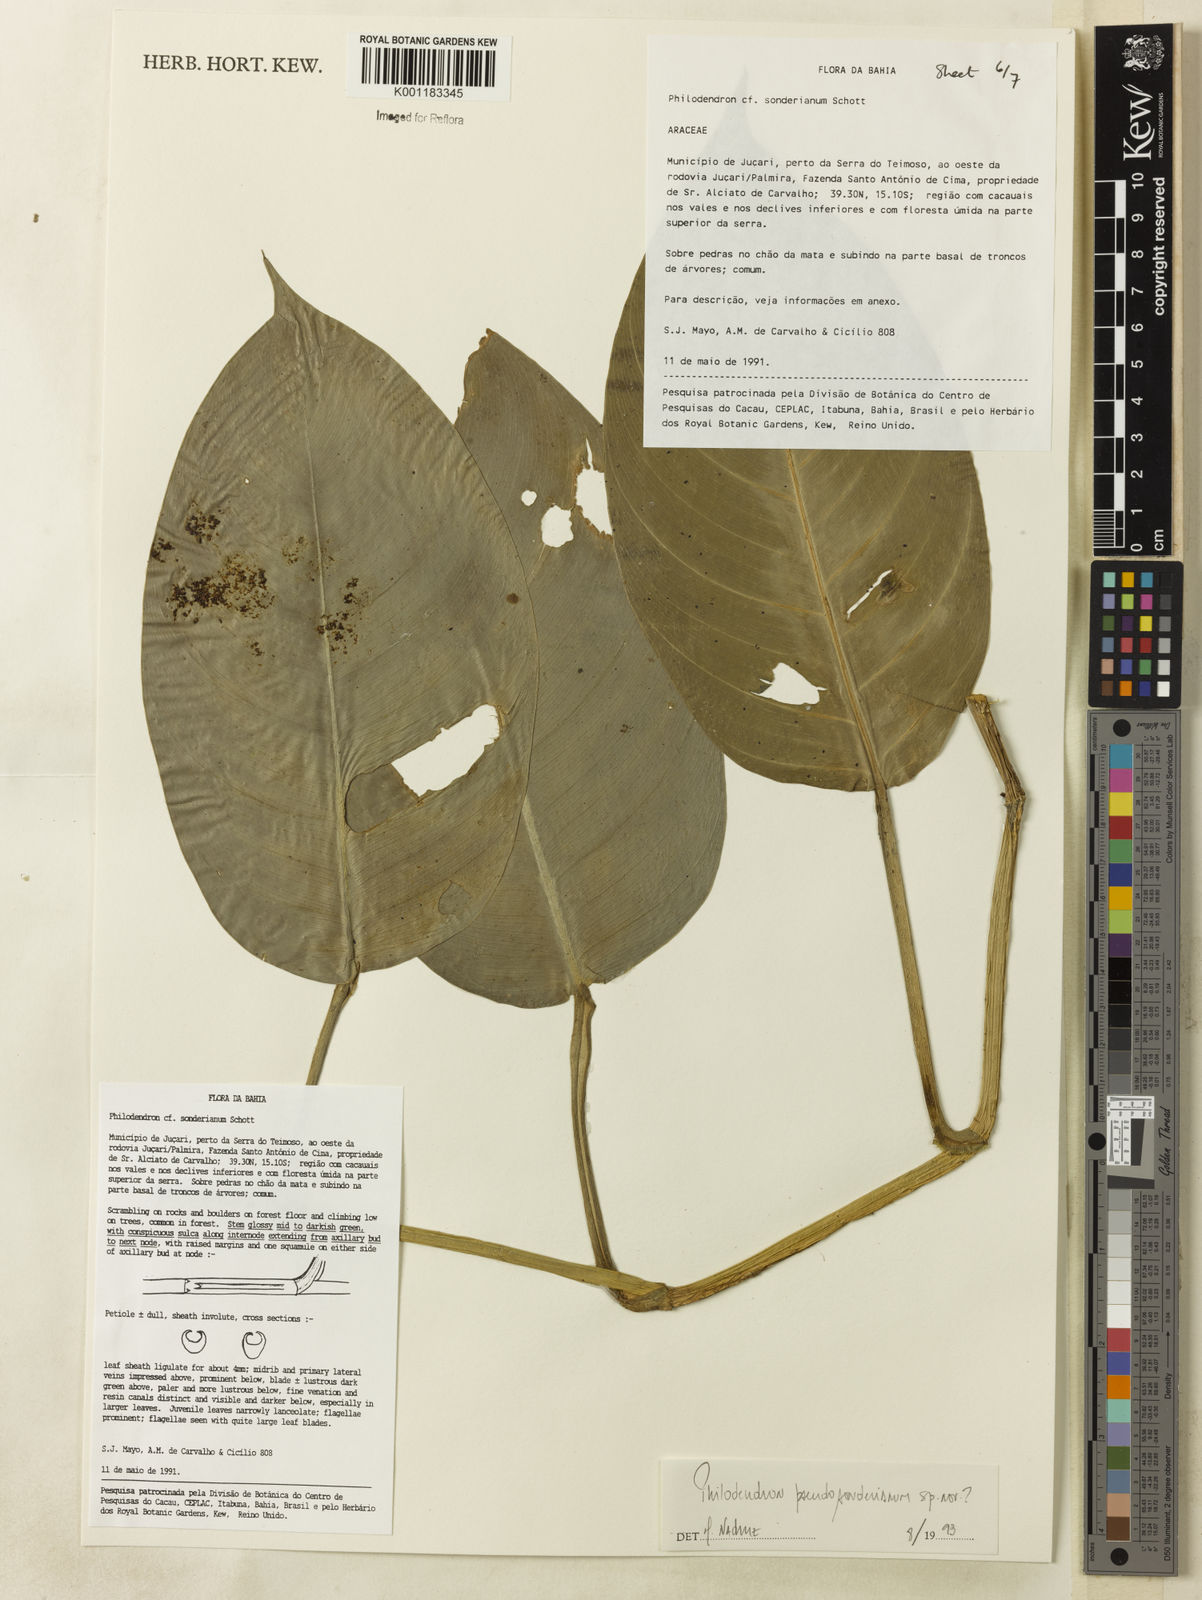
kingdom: Plantae
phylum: Tracheophyta
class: Liliopsida
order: Alismatales
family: Araceae
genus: Philodendron
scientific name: Philodendron
